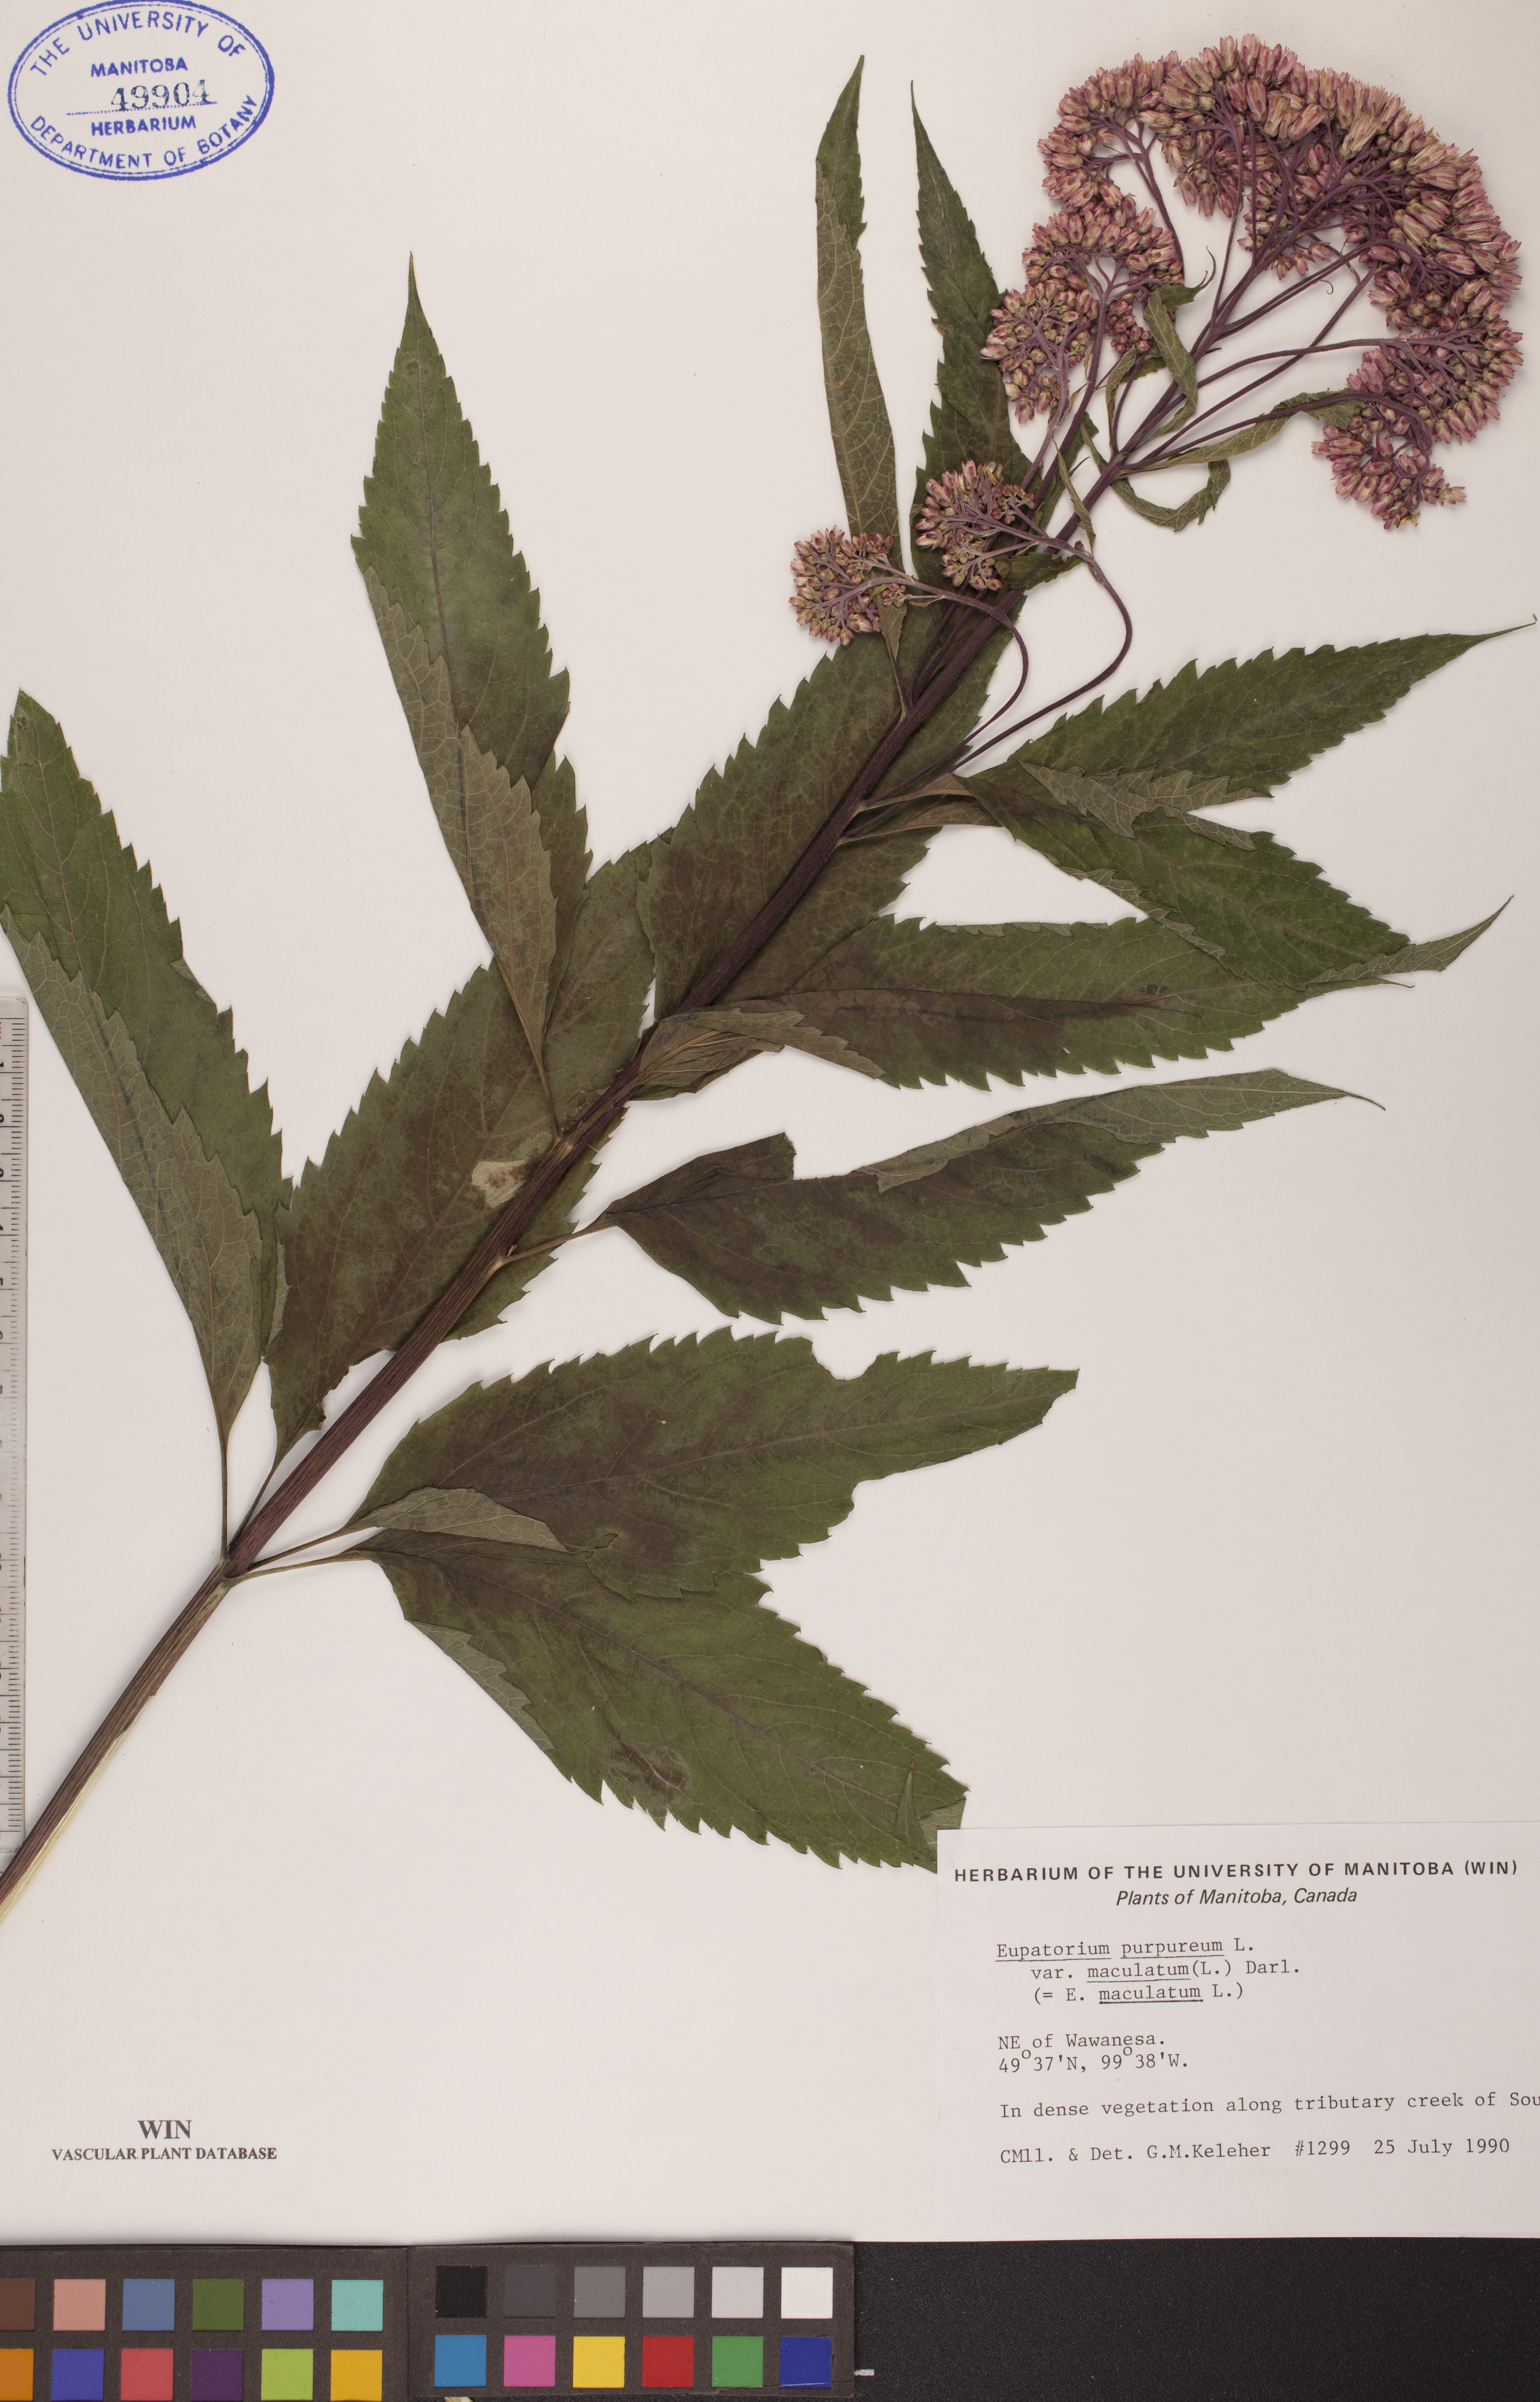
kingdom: Plantae
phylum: Tracheophyta
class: Magnoliopsida
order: Asterales
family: Asteraceae
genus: Eupatorium
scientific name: Eupatorium quaternum
